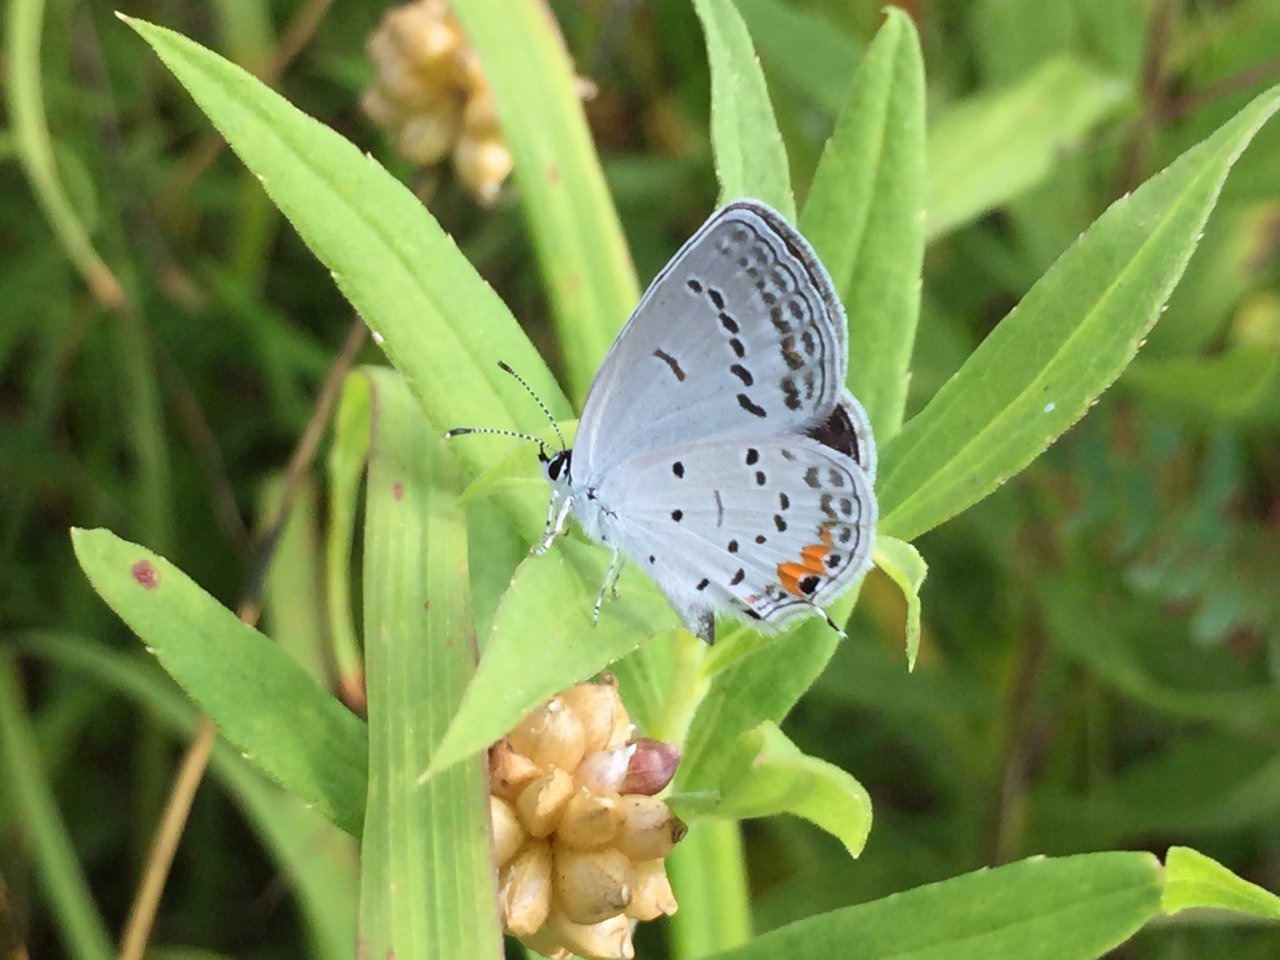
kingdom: Animalia
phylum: Arthropoda
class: Insecta
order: Lepidoptera
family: Lycaenidae
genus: Elkalyce
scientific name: Elkalyce comyntas
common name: Eastern Tailed-Blue
